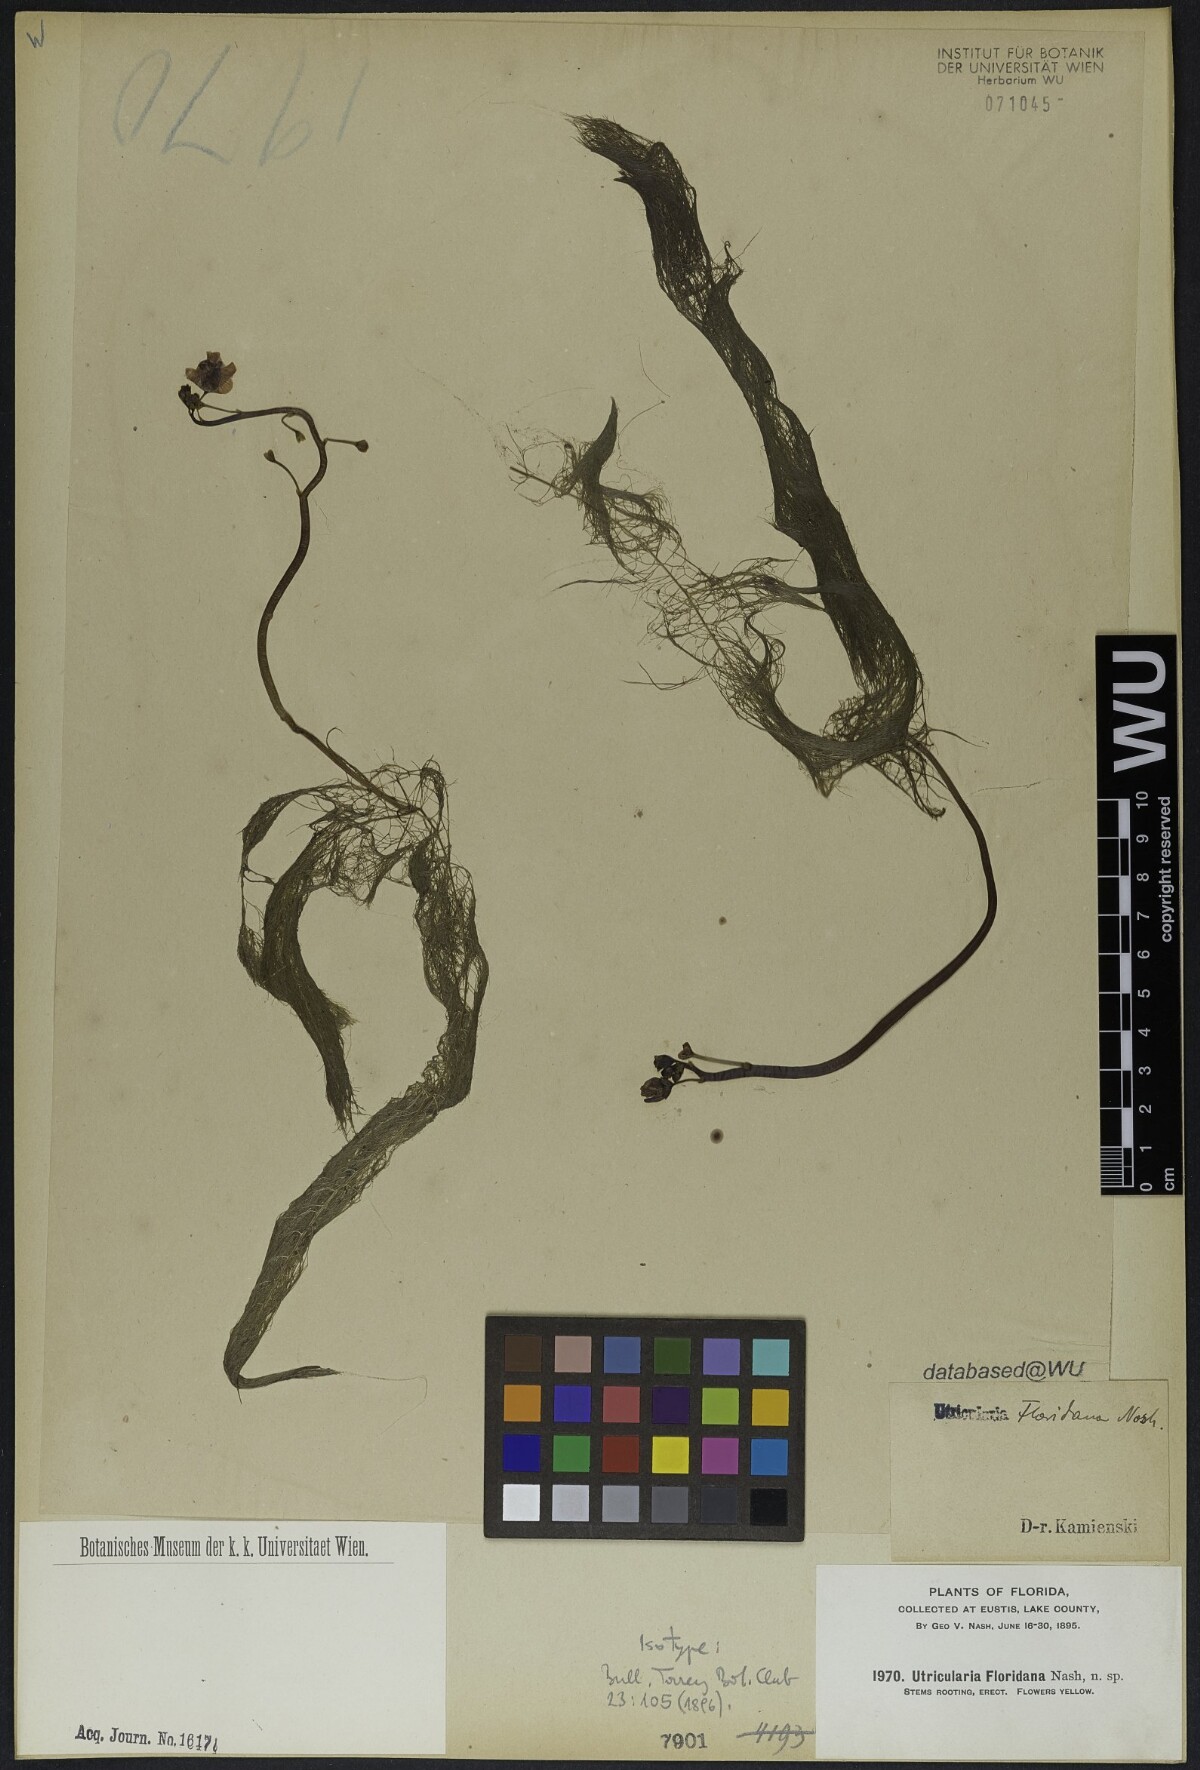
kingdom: Plantae
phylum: Tracheophyta
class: Magnoliopsida
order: Lamiales
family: Lentibulariaceae
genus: Utricularia
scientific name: Utricularia floridana
